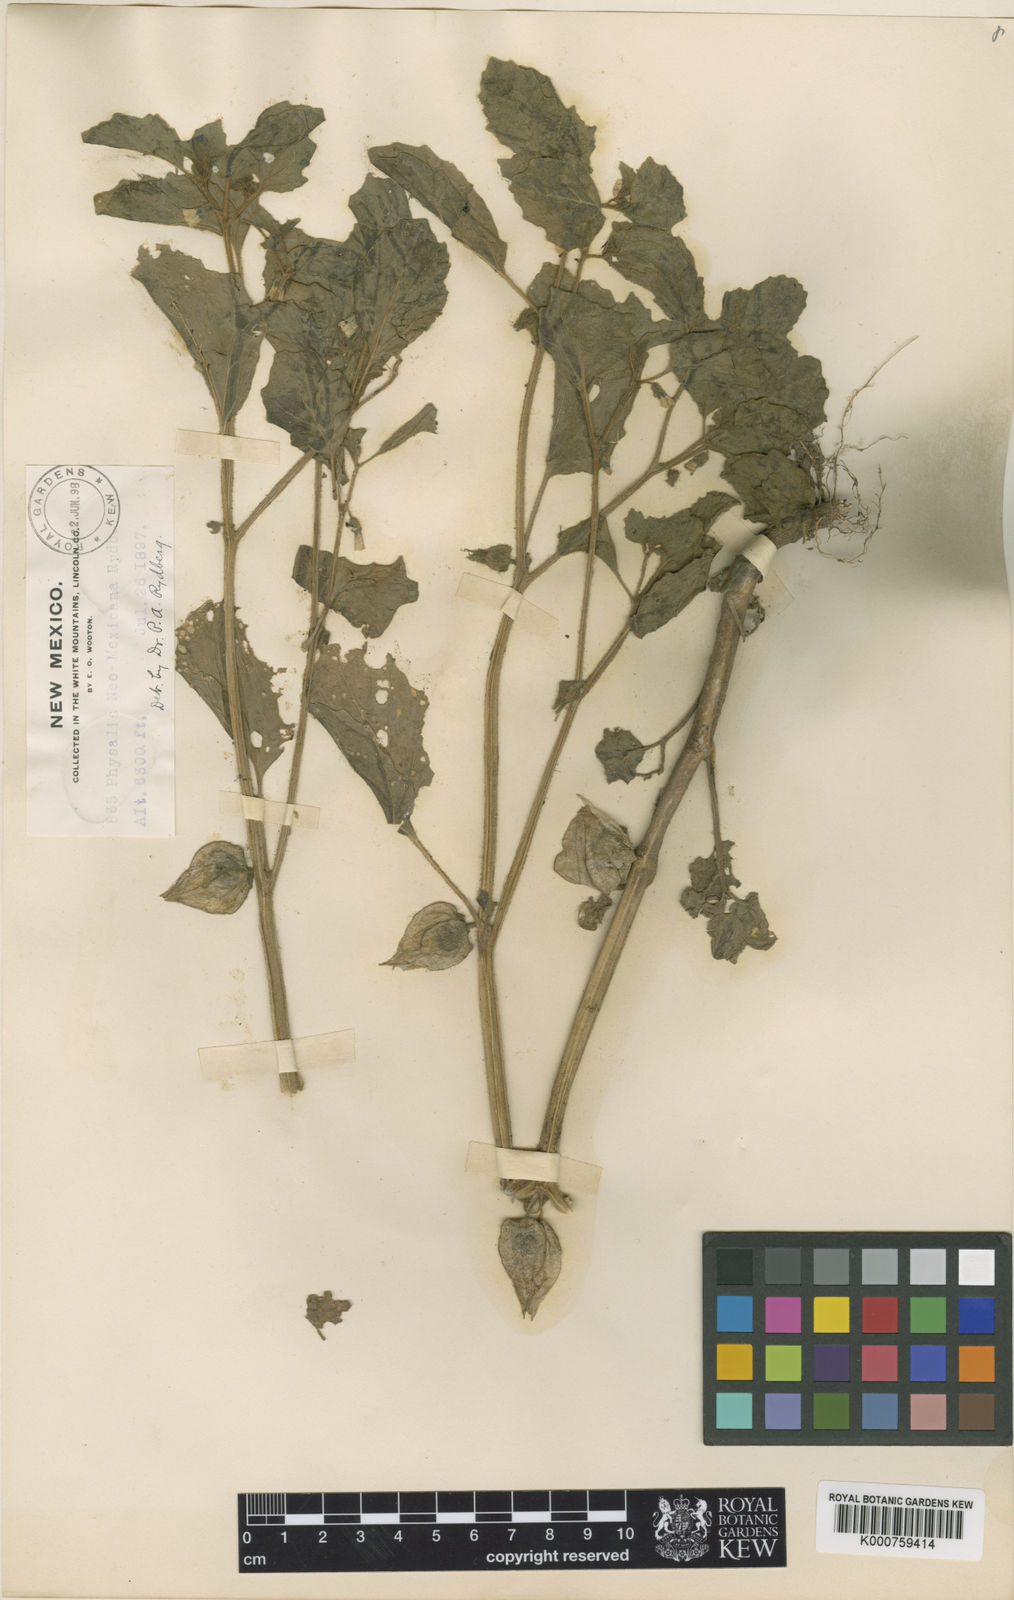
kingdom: Plantae
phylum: Tracheophyta
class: Magnoliopsida
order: Solanales
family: Solanaceae
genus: Physalis
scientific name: Physalis neomexicana
